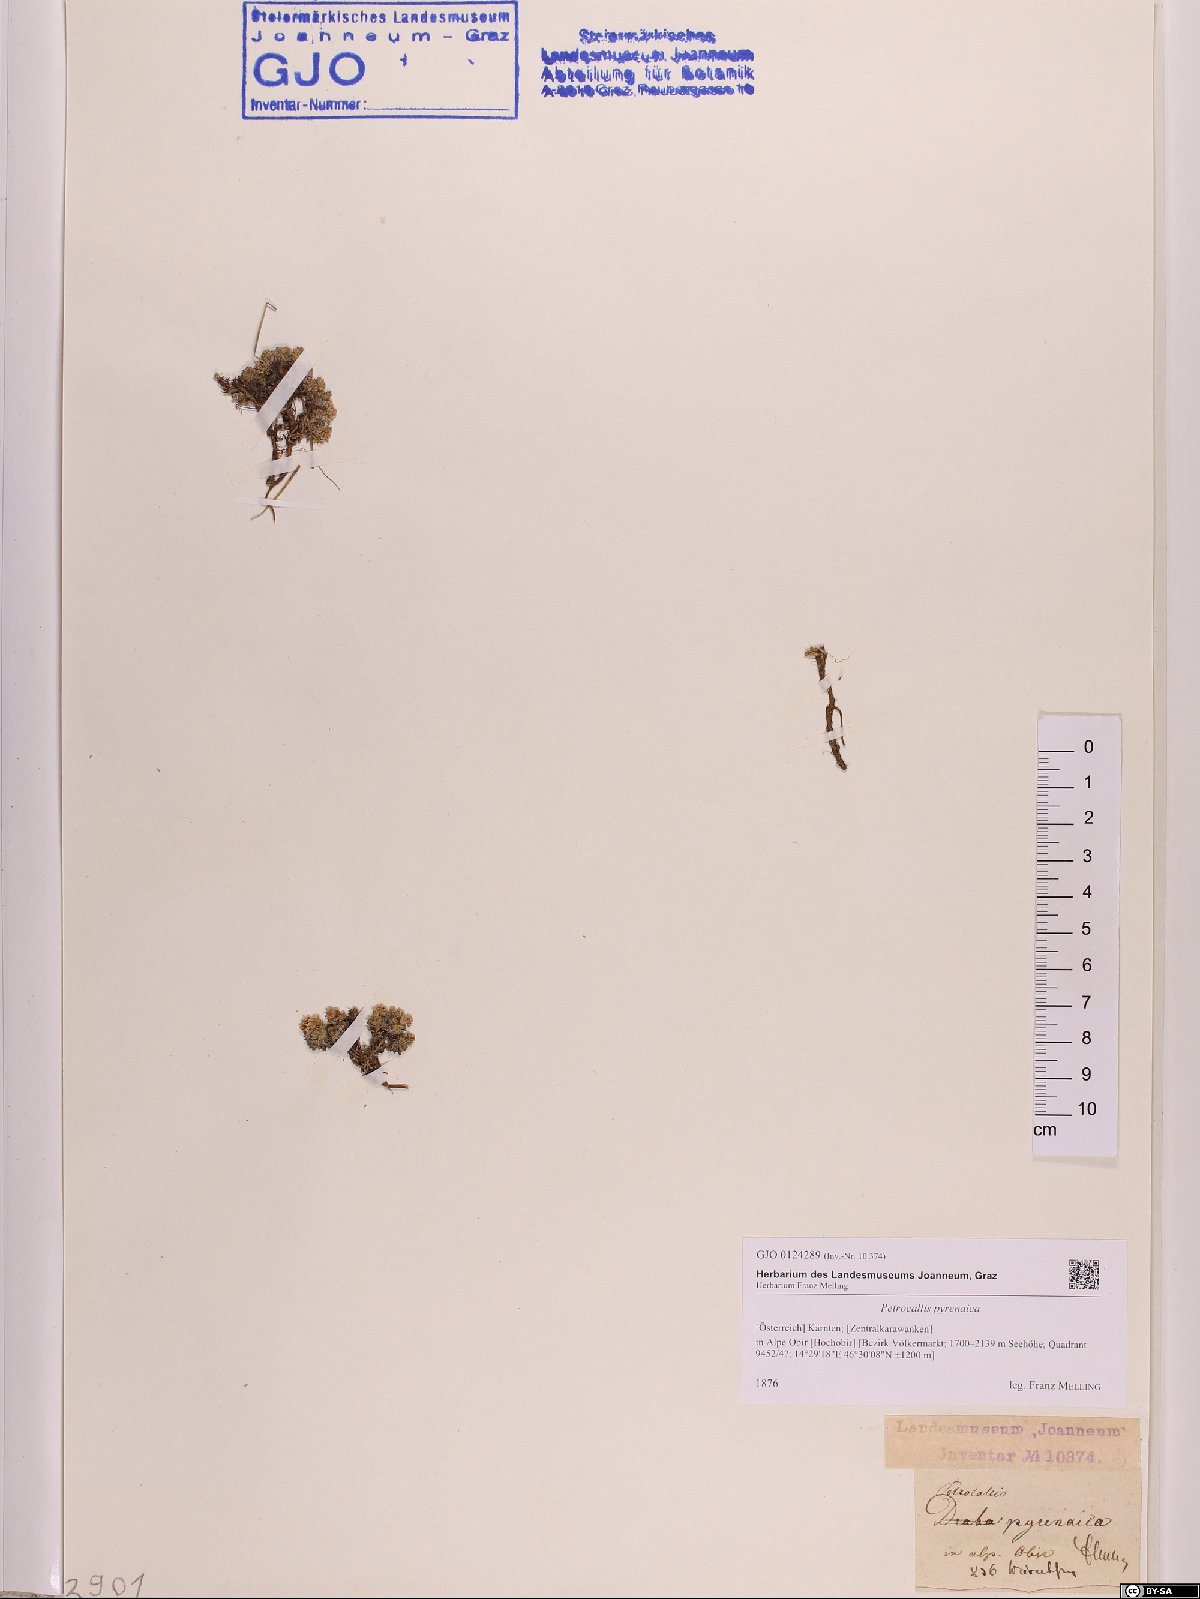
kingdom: Plantae
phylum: Tracheophyta
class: Magnoliopsida
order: Brassicales
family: Brassicaceae
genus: Petrocallis
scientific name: Petrocallis pyrenaica
